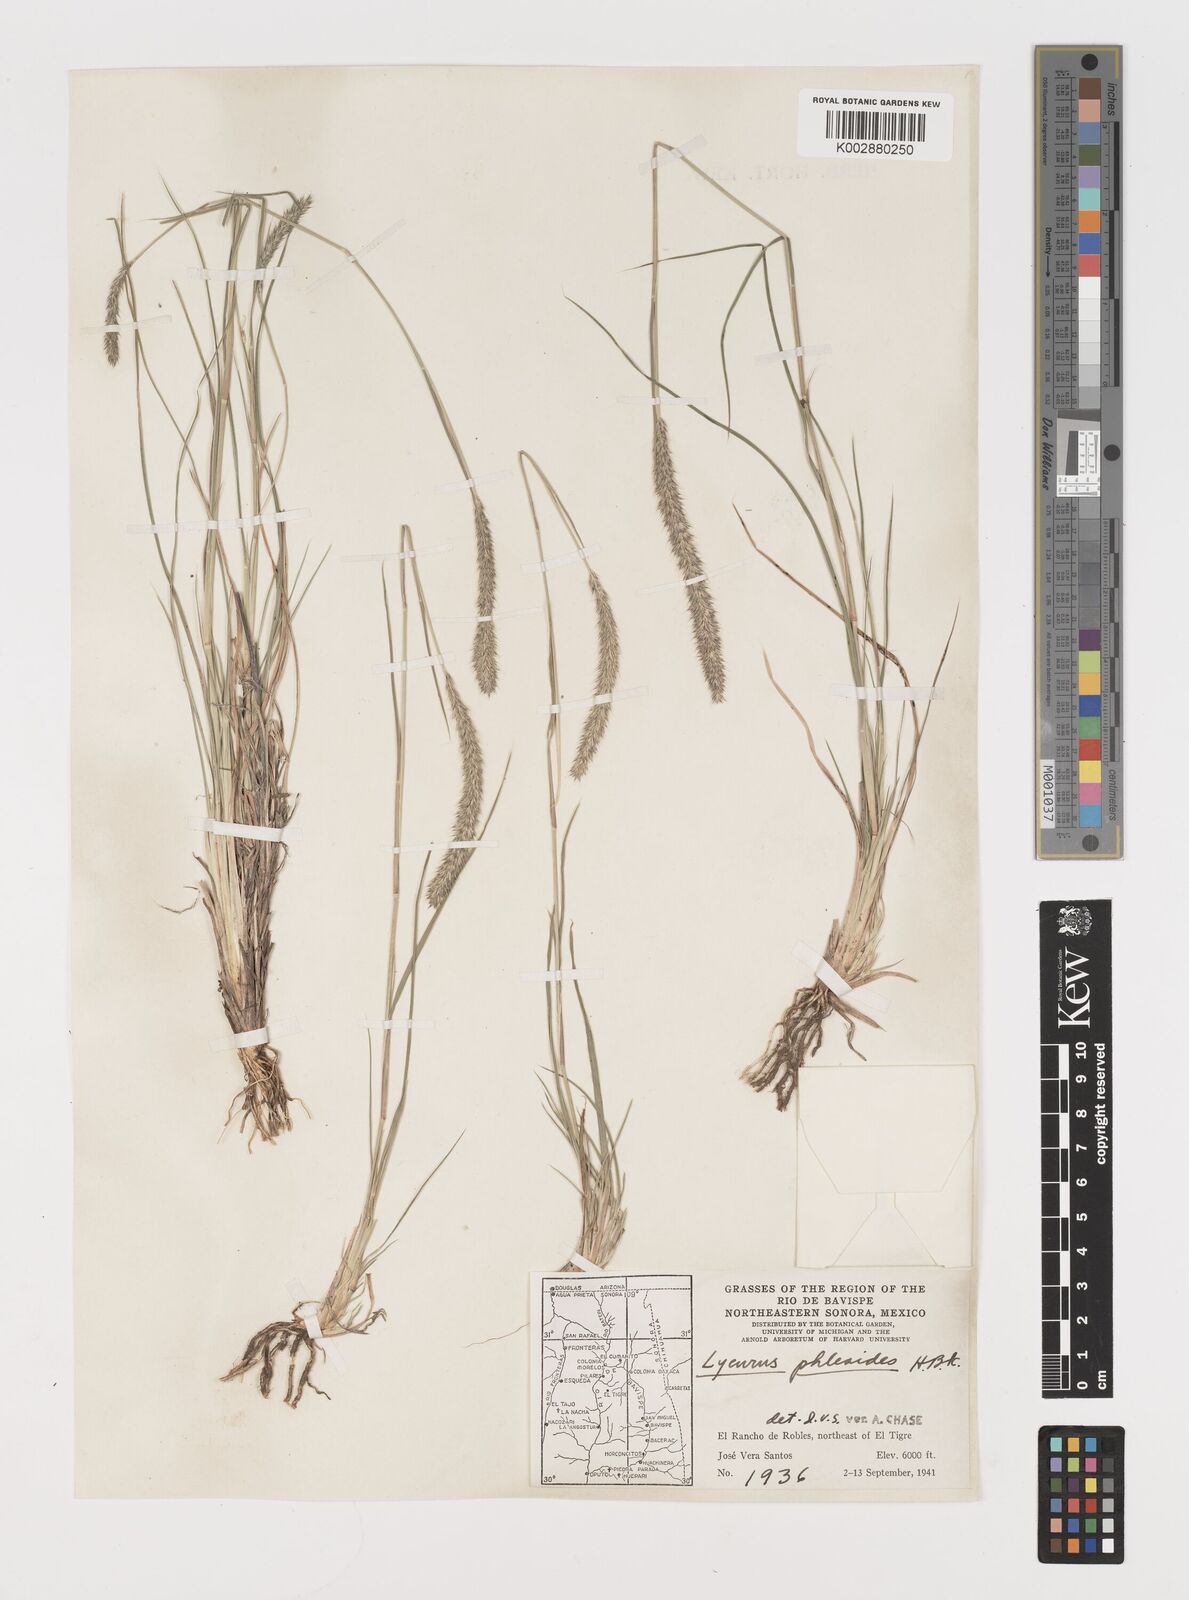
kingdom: Plantae
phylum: Tracheophyta
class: Liliopsida
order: Poales
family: Poaceae
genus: Muhlenbergia
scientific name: Muhlenbergia alopecuroides
